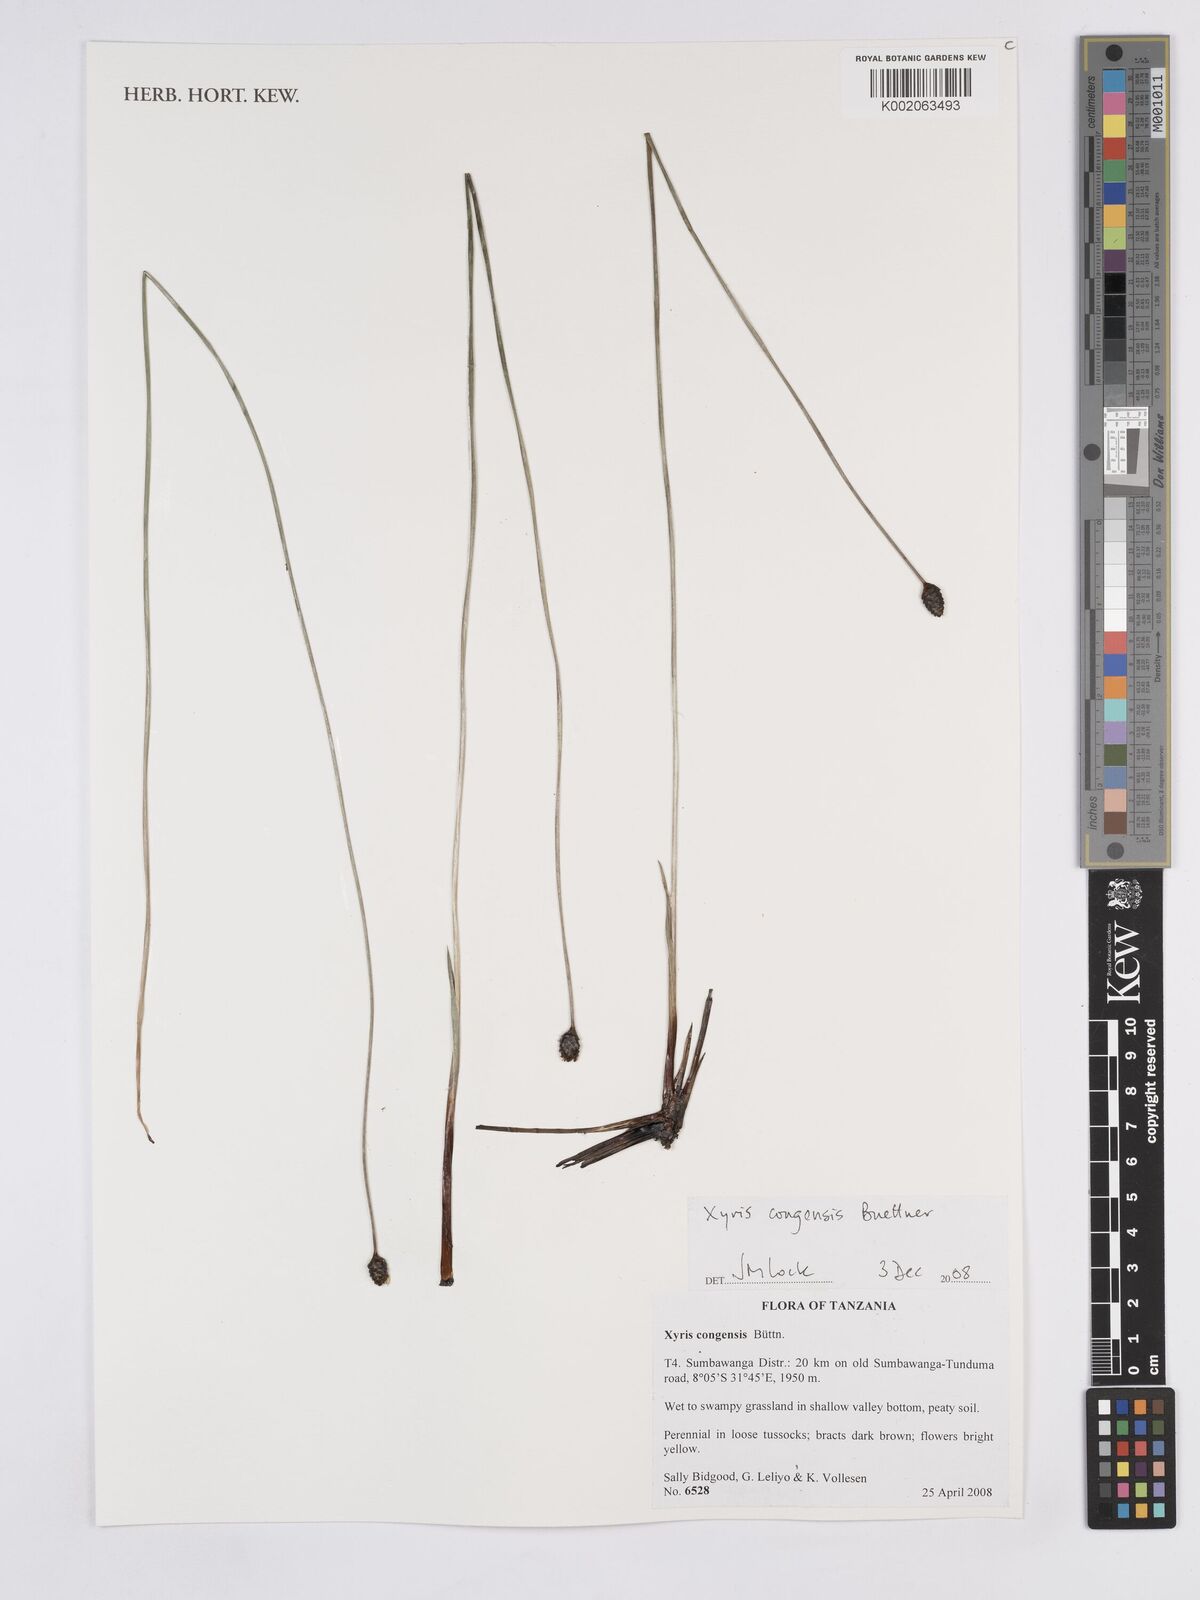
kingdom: Plantae
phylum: Tracheophyta
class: Liliopsida
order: Poales
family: Xyridaceae
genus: Xyris
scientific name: Xyris congensis
